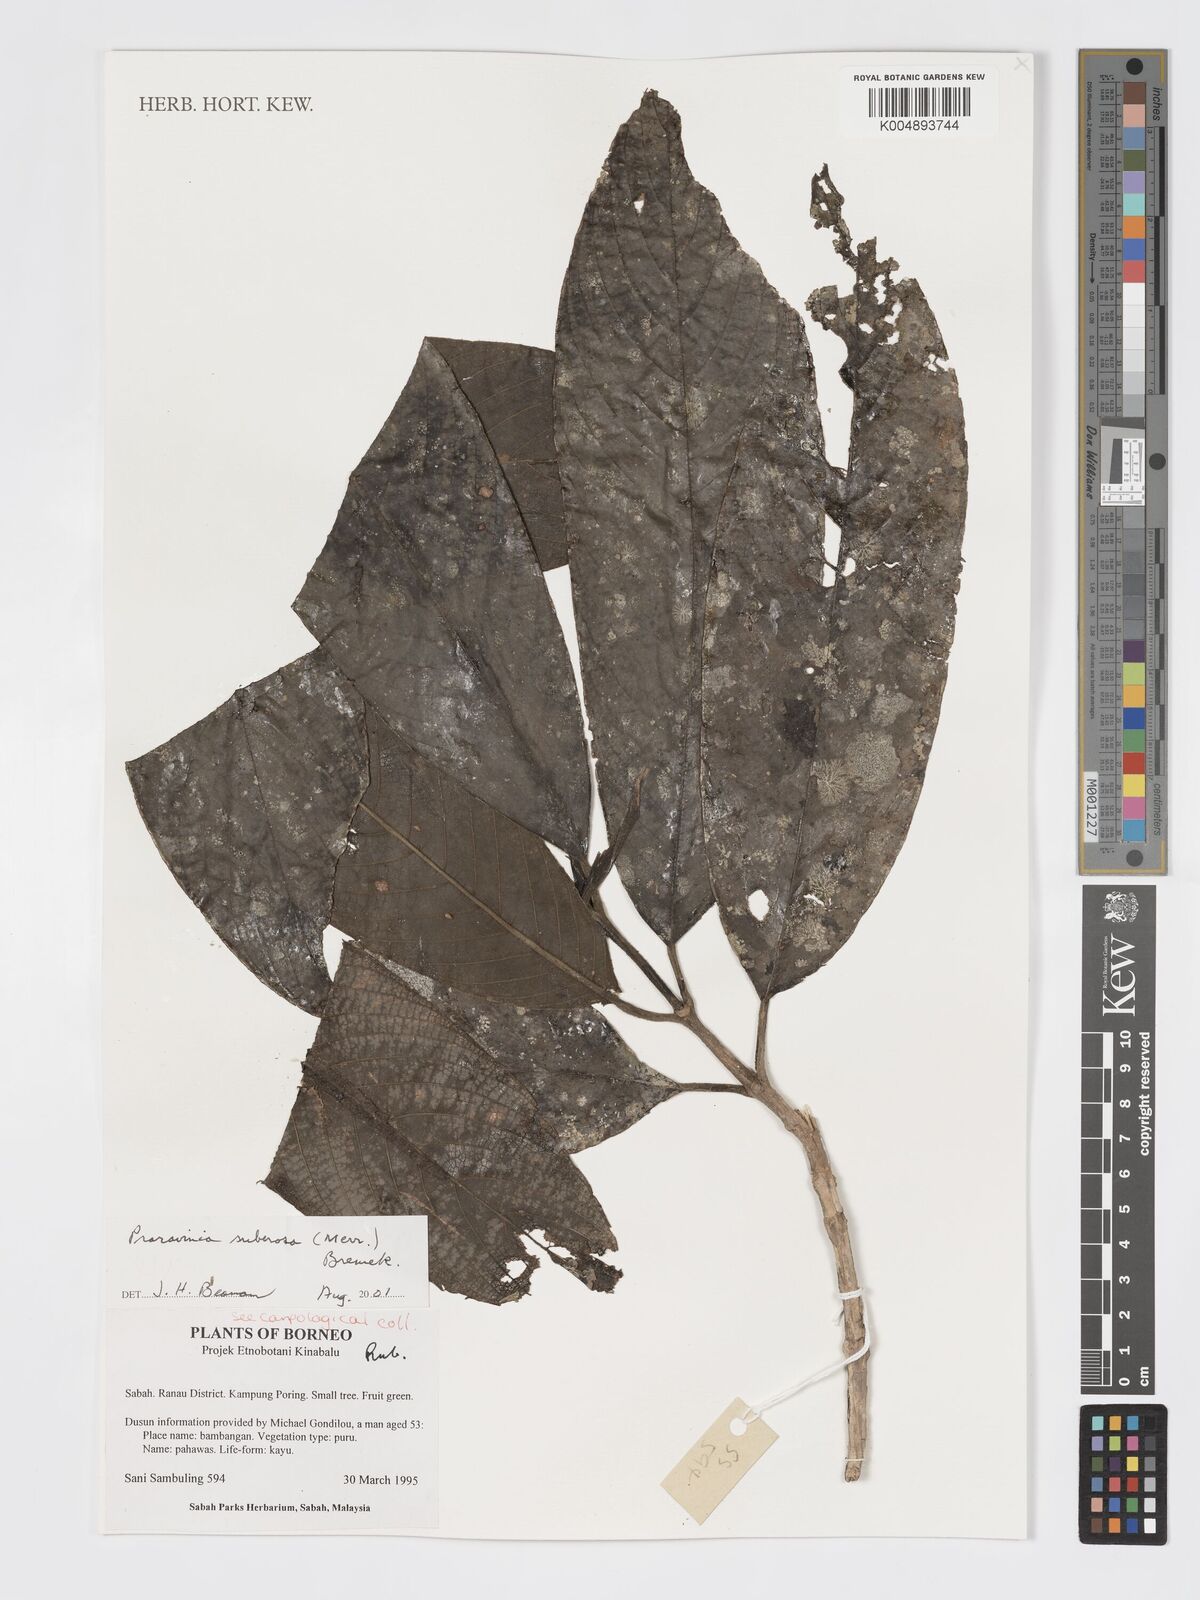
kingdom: Plantae
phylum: Tracheophyta
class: Magnoliopsida
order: Gentianales
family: Rubiaceae
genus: Praravinia
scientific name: Praravinia suberosa
